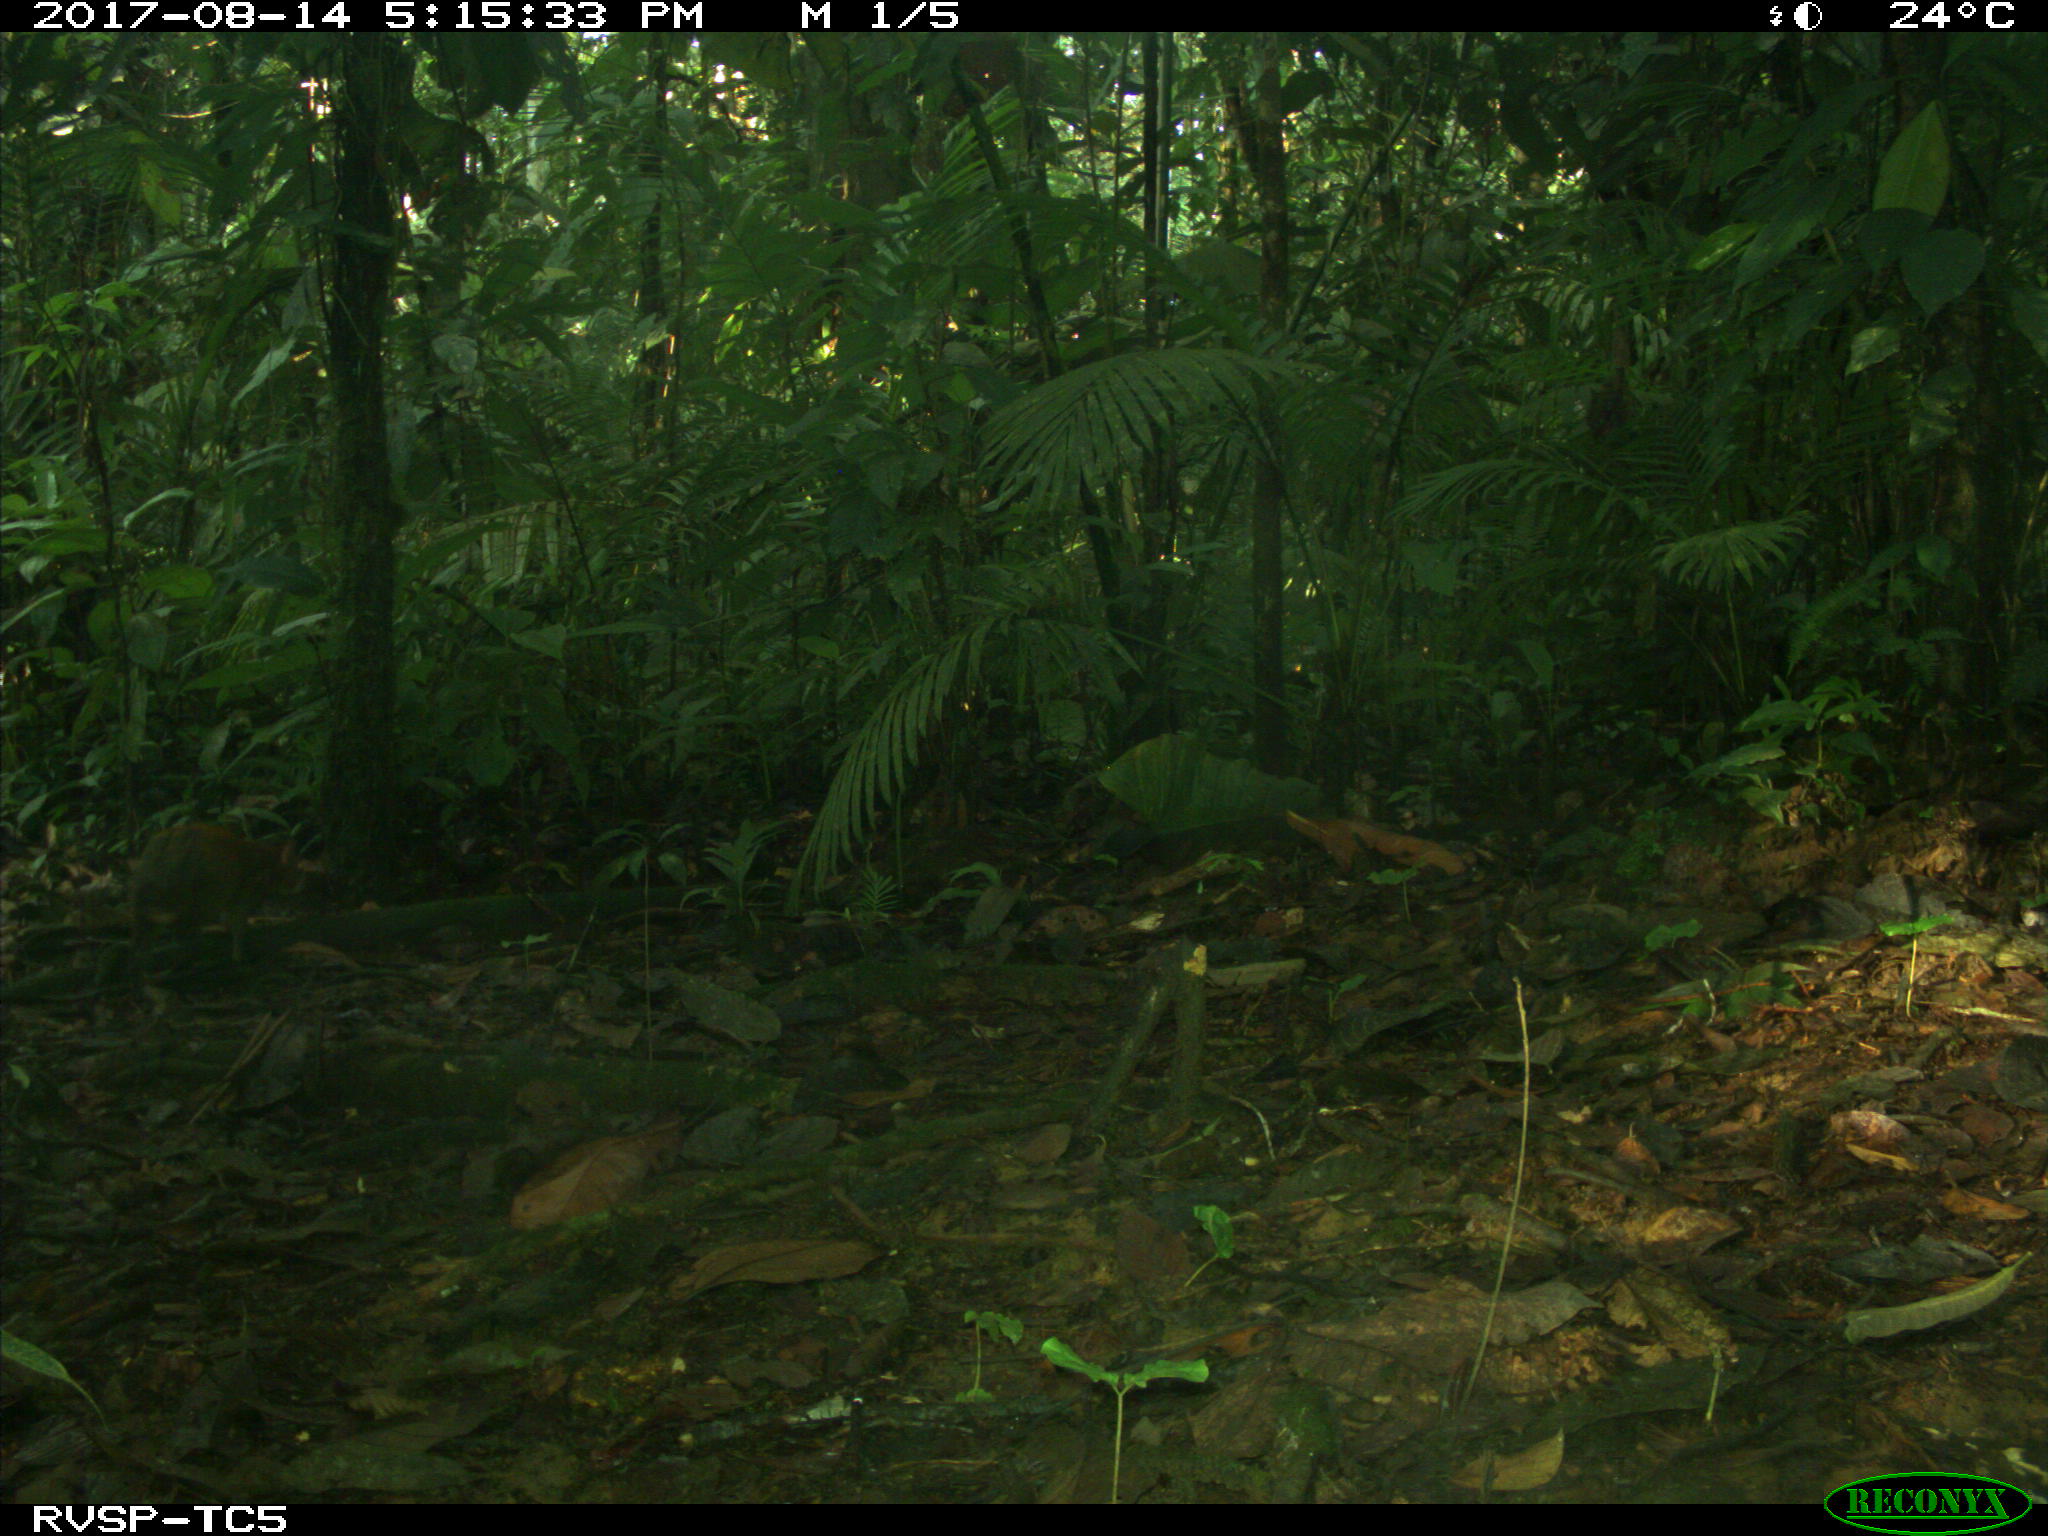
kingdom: Animalia
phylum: Chordata
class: Mammalia
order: Rodentia
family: Dasyproctidae
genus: Dasyprocta
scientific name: Dasyprocta punctata
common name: Central american agouti
